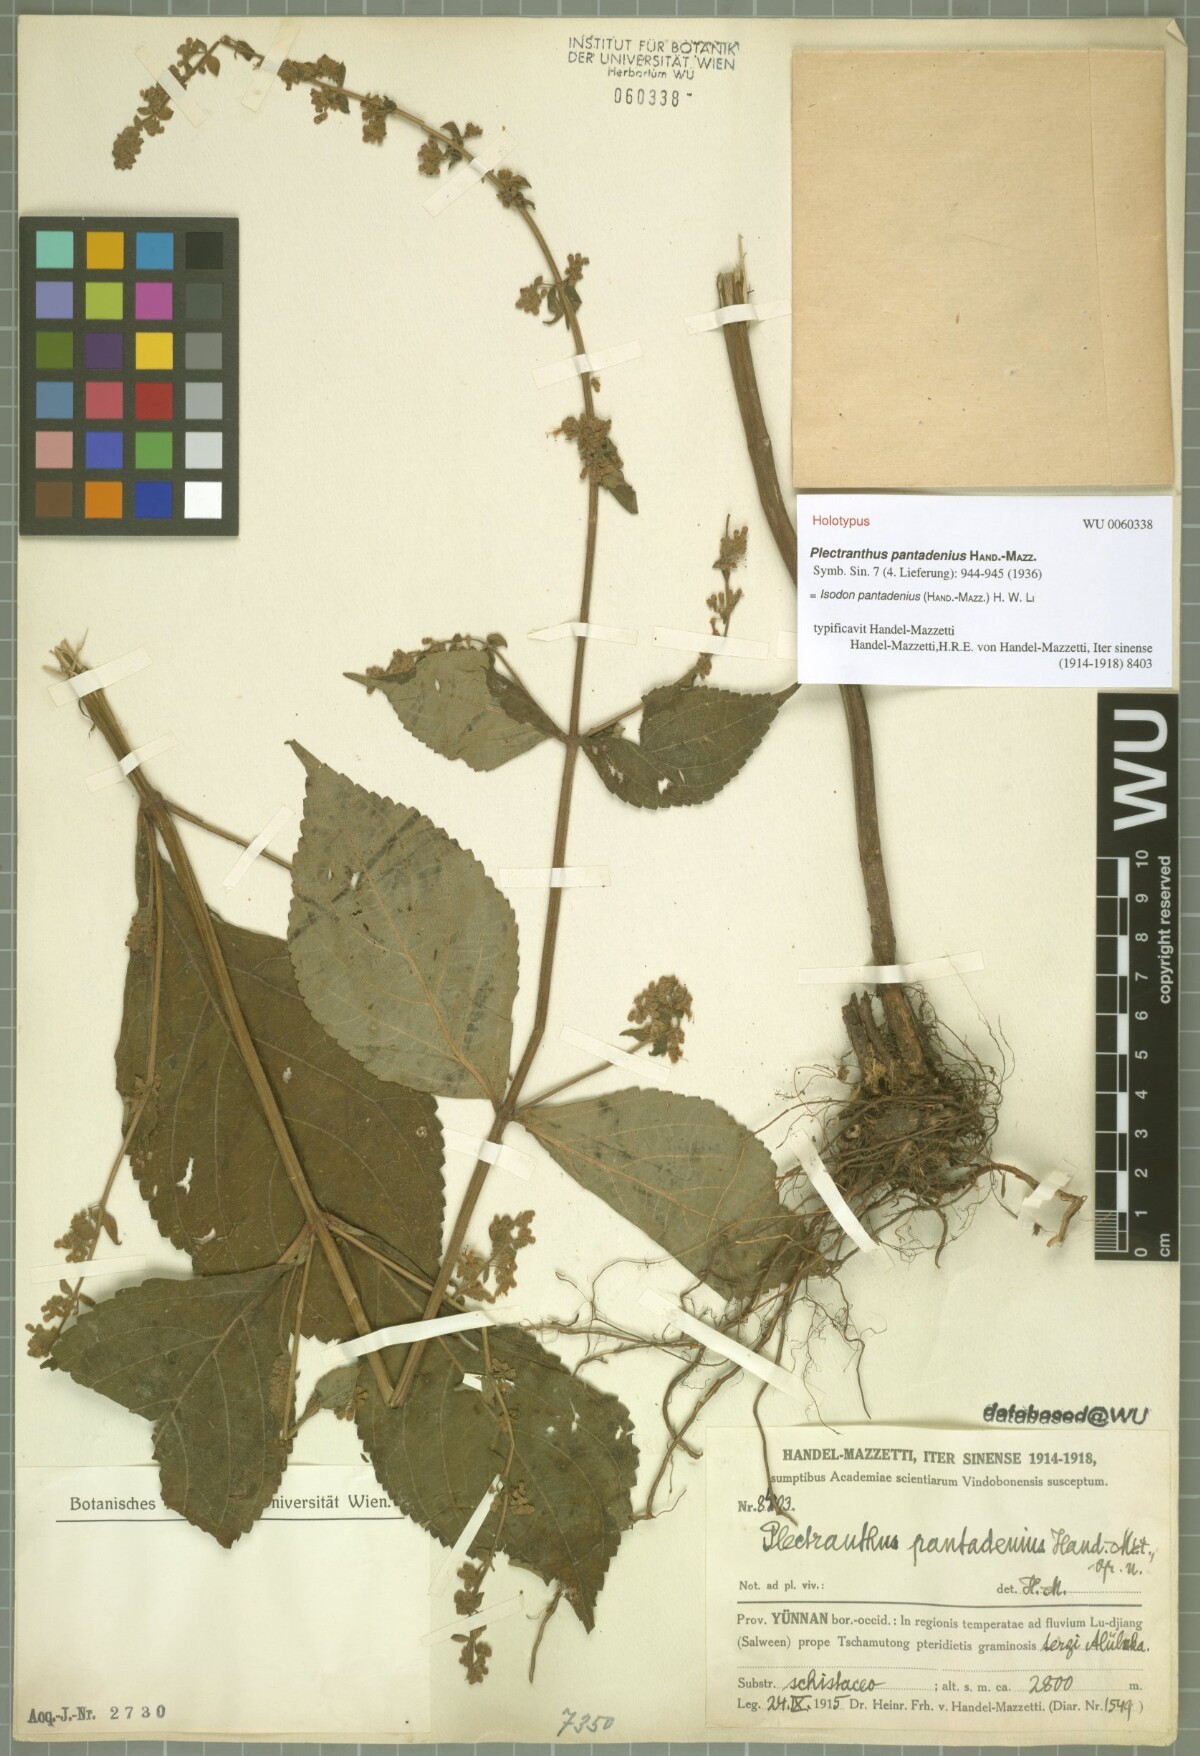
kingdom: Plantae
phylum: Tracheophyta
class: Magnoliopsida
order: Lamiales
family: Lamiaceae
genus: Isodon
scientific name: Isodon pantadenius
